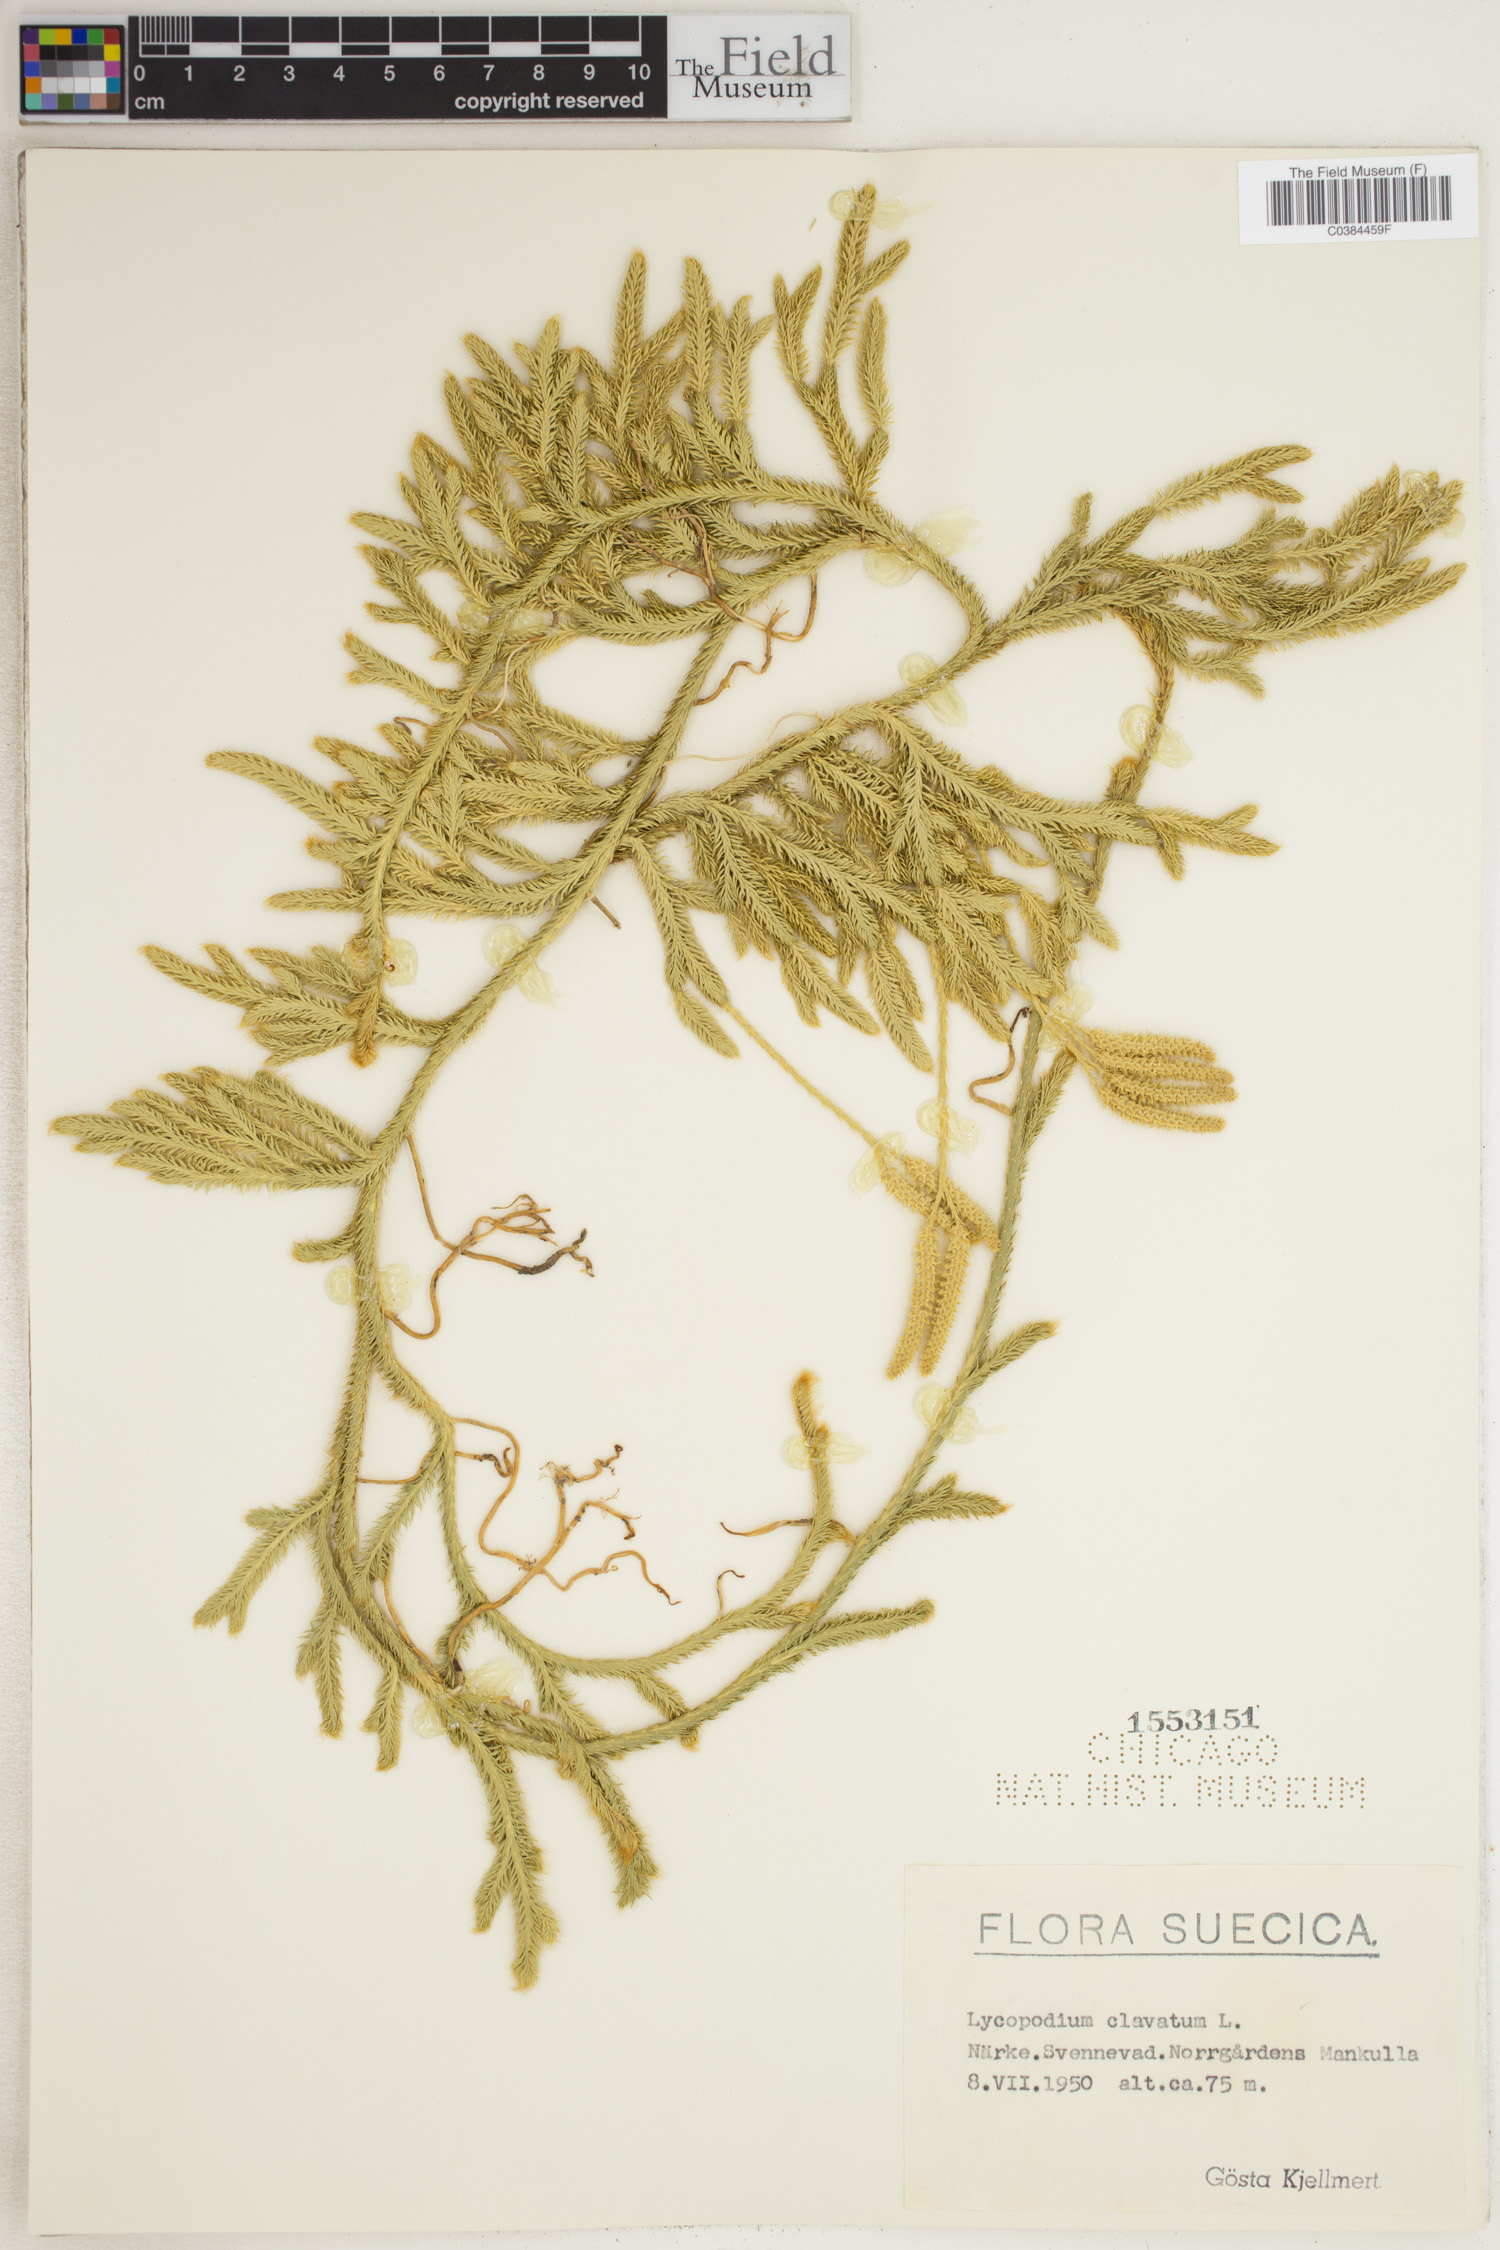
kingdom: Plantae
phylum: Tracheophyta
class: Lycopodiopsida
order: Lycopodiales
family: Lycopodiaceae
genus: Lycopodium
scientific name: Lycopodium clavatum
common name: Stag's-horn clubmoss
